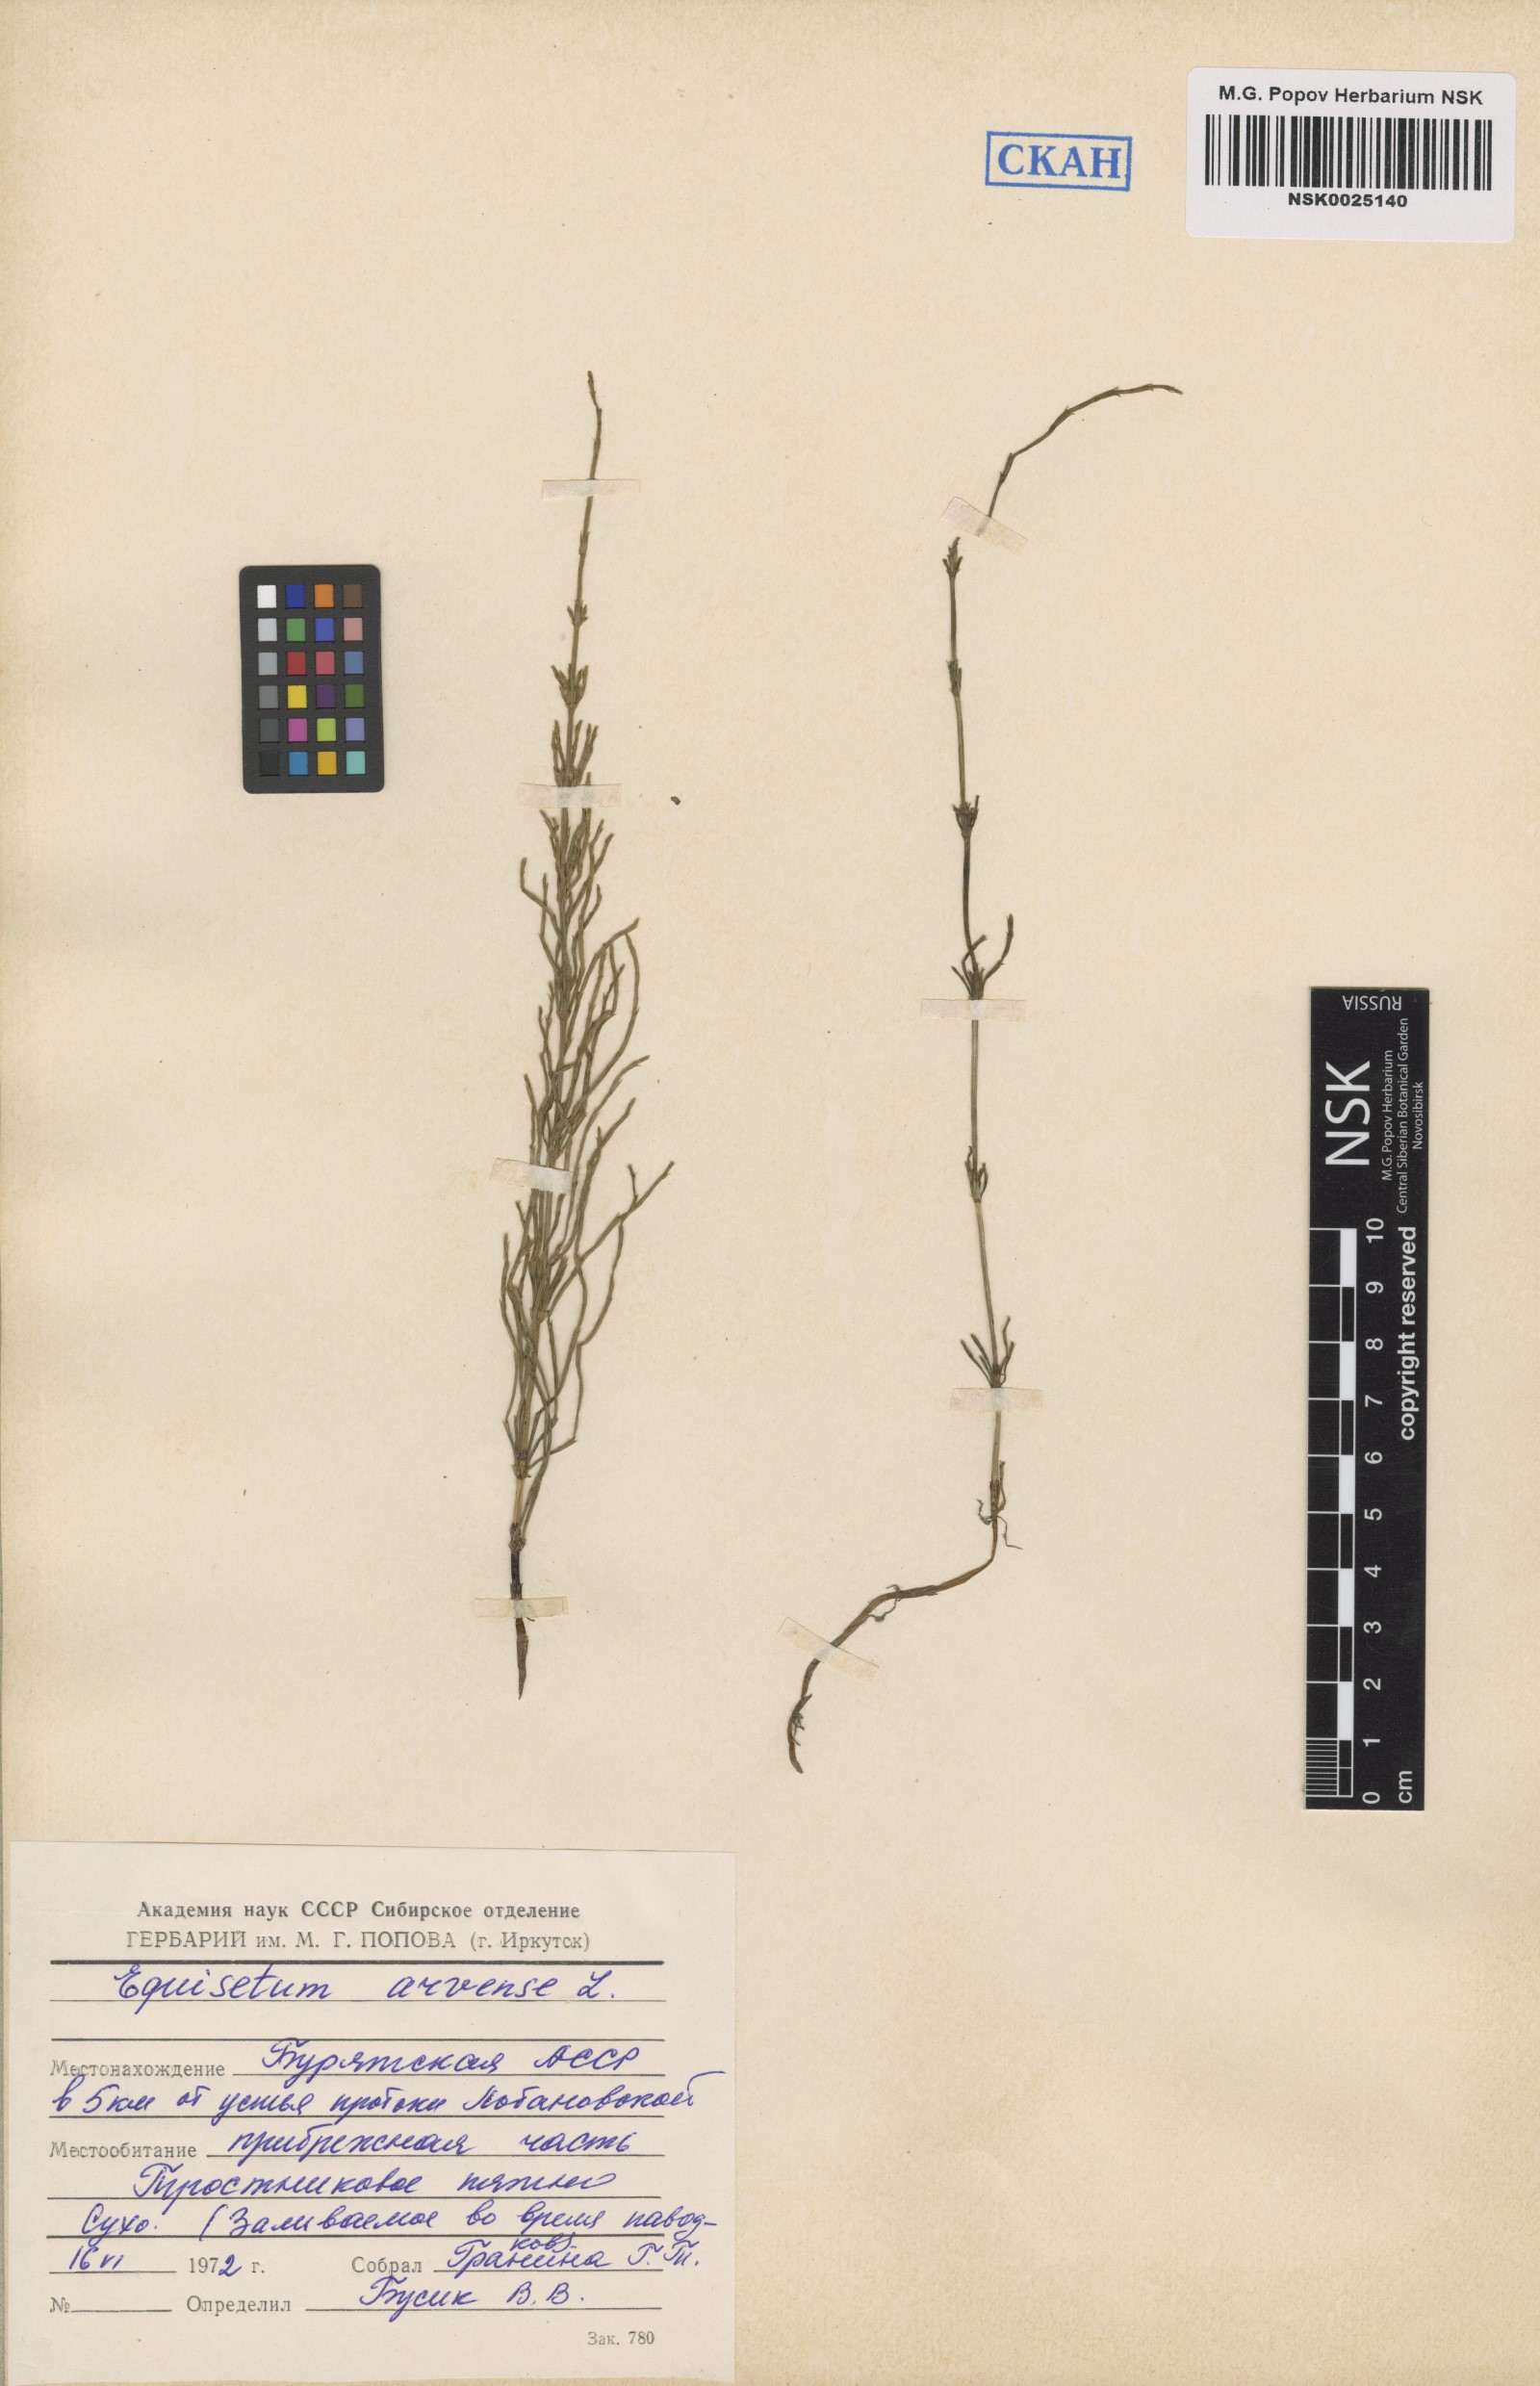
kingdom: Plantae
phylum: Tracheophyta
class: Polypodiopsida
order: Equisetales
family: Equisetaceae
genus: Equisetum
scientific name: Equisetum arvense
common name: Field horsetail
